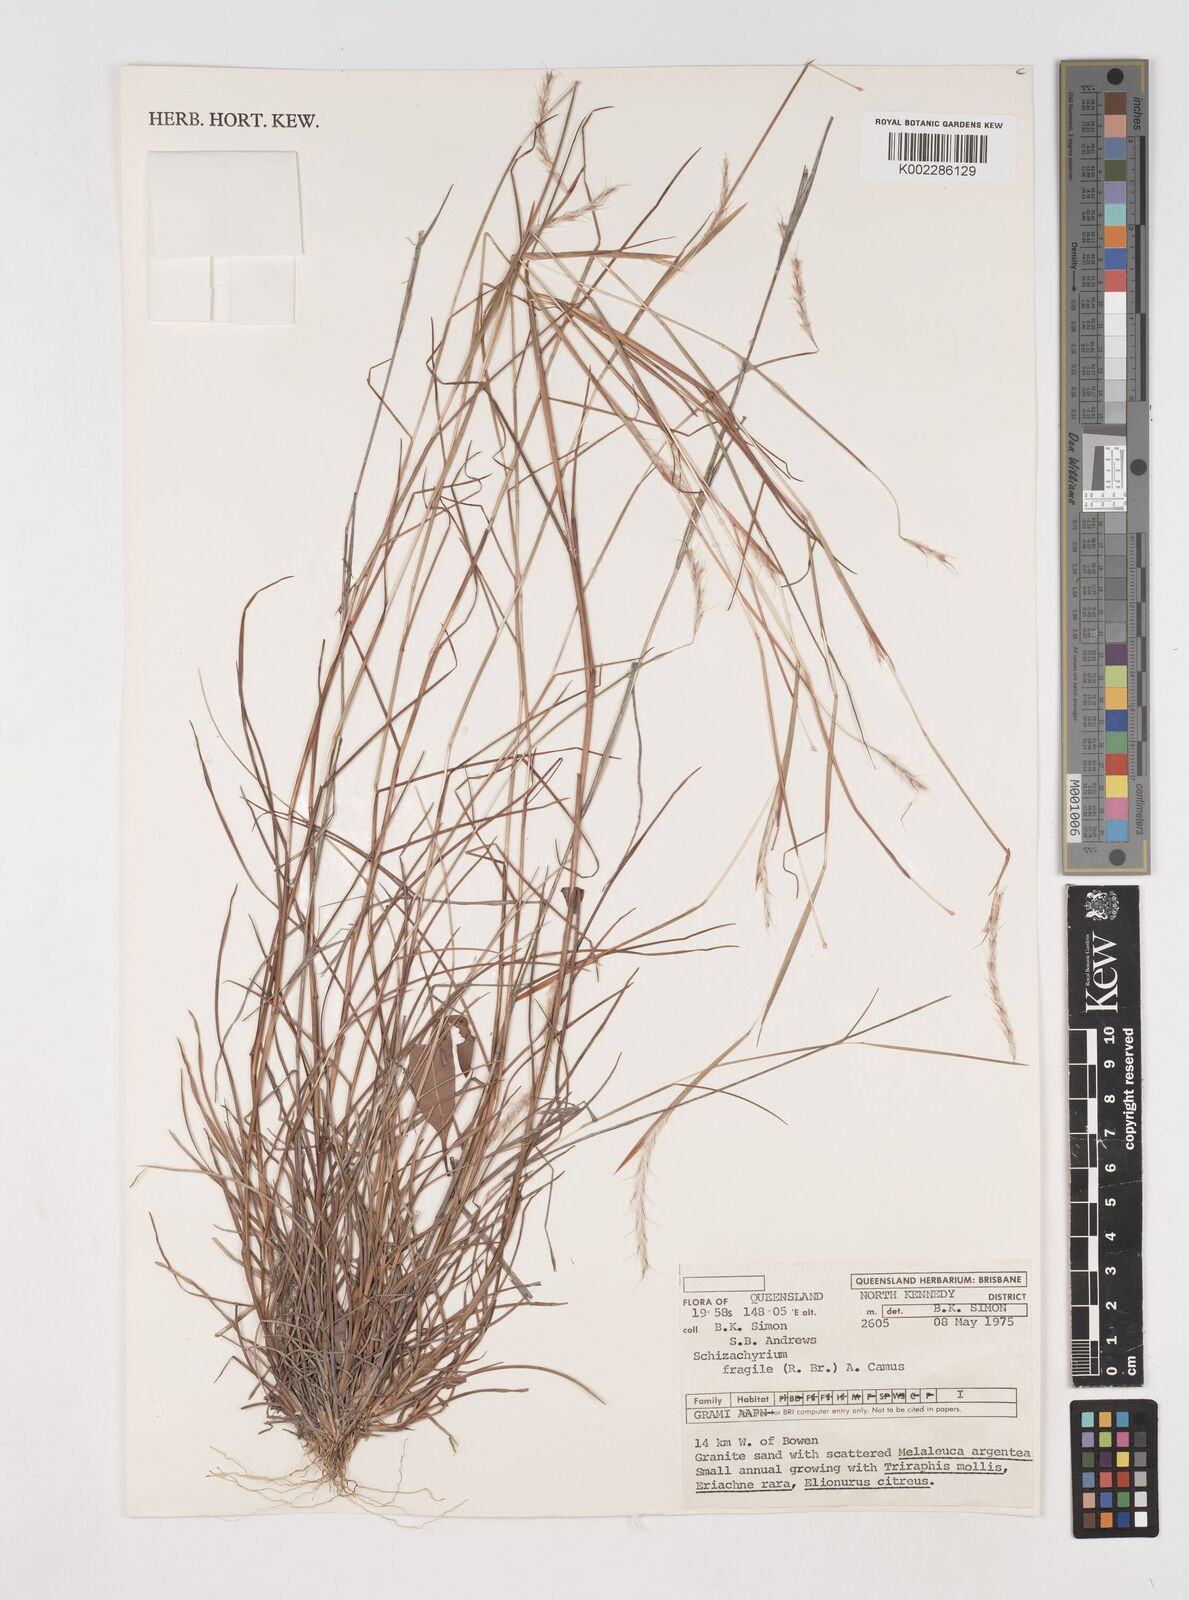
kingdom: Plantae
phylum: Tracheophyta
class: Liliopsida
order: Poales
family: Poaceae
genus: Schizachyrium
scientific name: Schizachyrium fragile
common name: Red spathe grass
